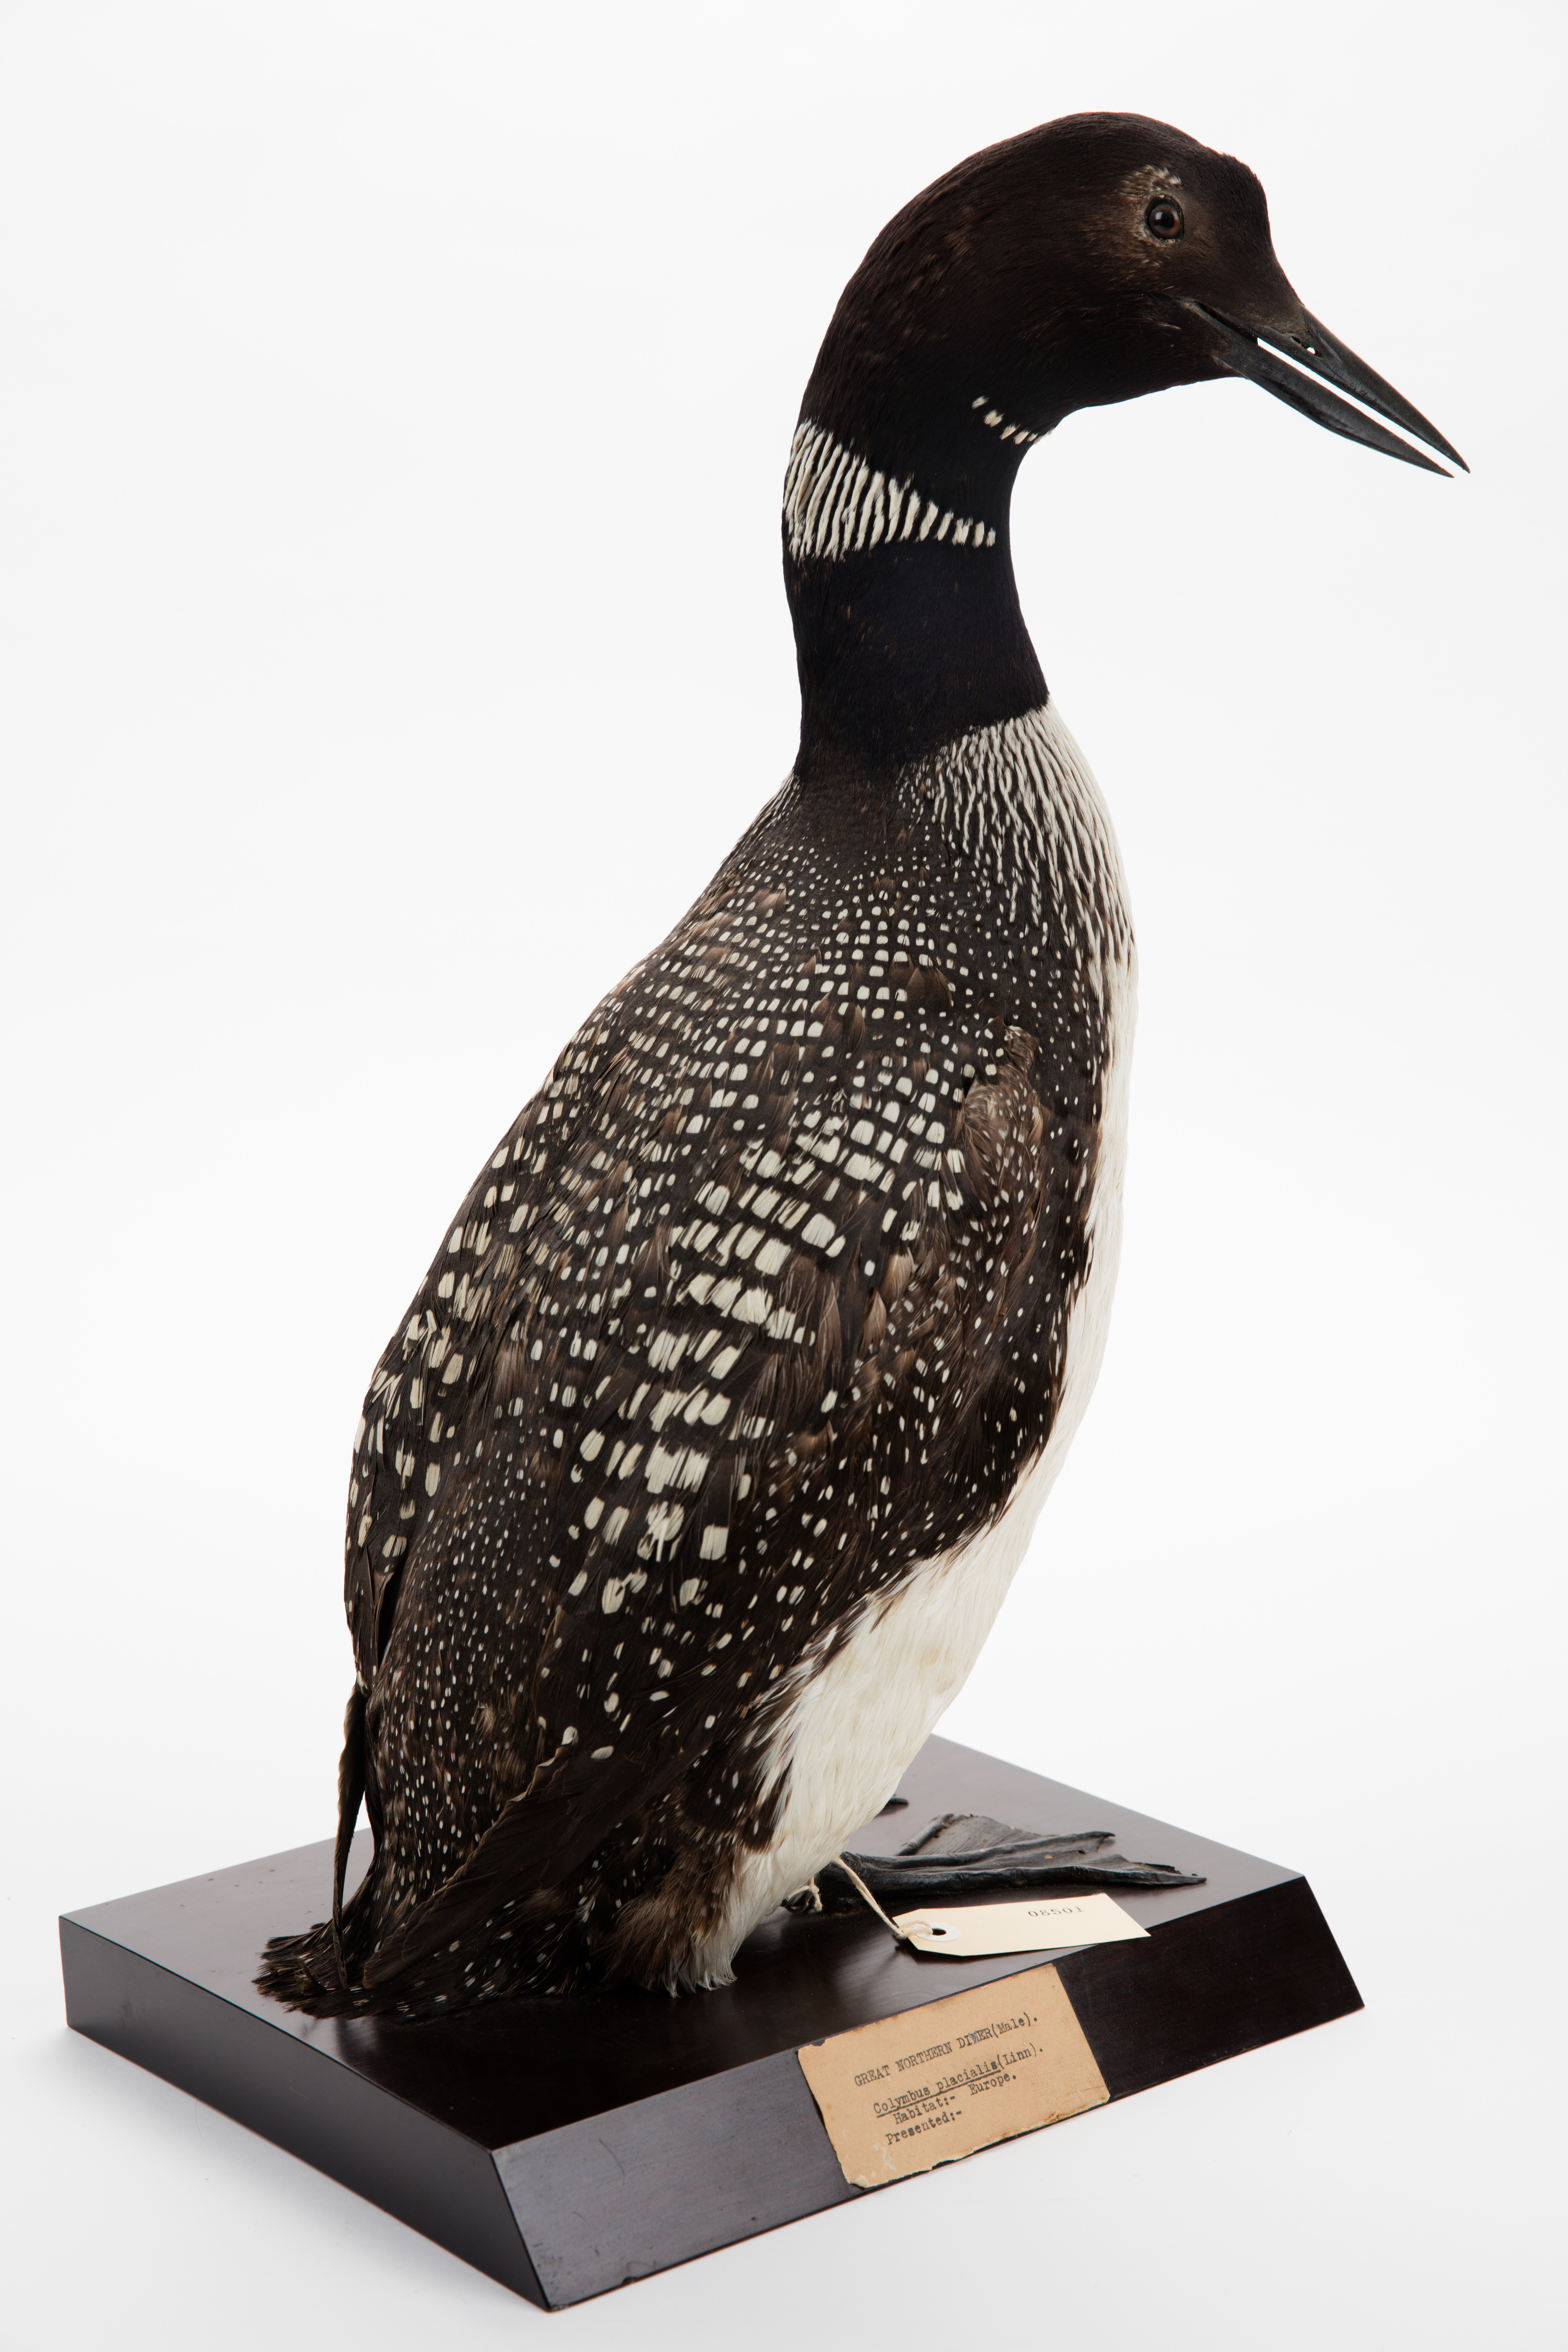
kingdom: Animalia
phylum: Chordata
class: Aves
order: Gaviiformes
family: Gaviidae
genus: Gavia
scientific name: Gavia immer
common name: Common loon
